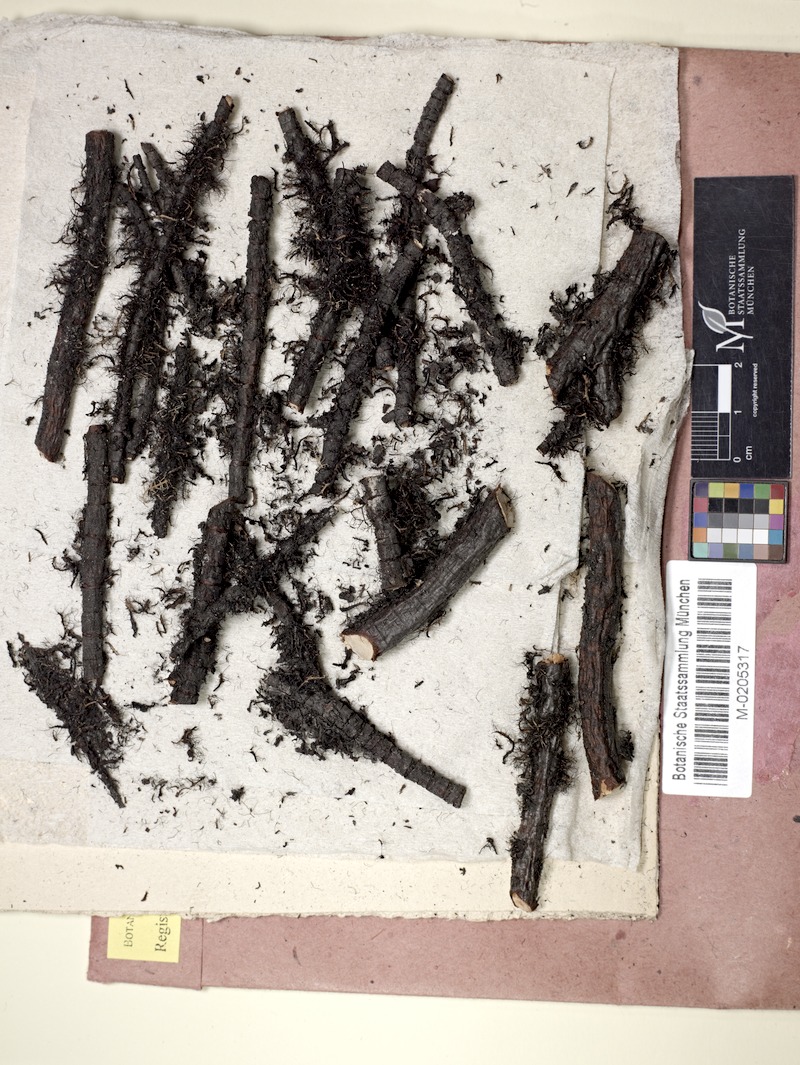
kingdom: Fungi
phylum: Ascomycota
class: Lecanoromycetes
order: Lecanorales
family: Parmeliaceae
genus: Hypotrachyna
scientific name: Hypotrachyna kaernefeltii
